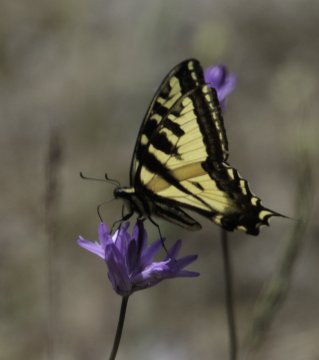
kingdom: Animalia
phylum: Arthropoda
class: Insecta
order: Lepidoptera
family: Papilionidae
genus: Pterourus
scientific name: Pterourus rutulus
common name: Western Tiger Swallowtail
